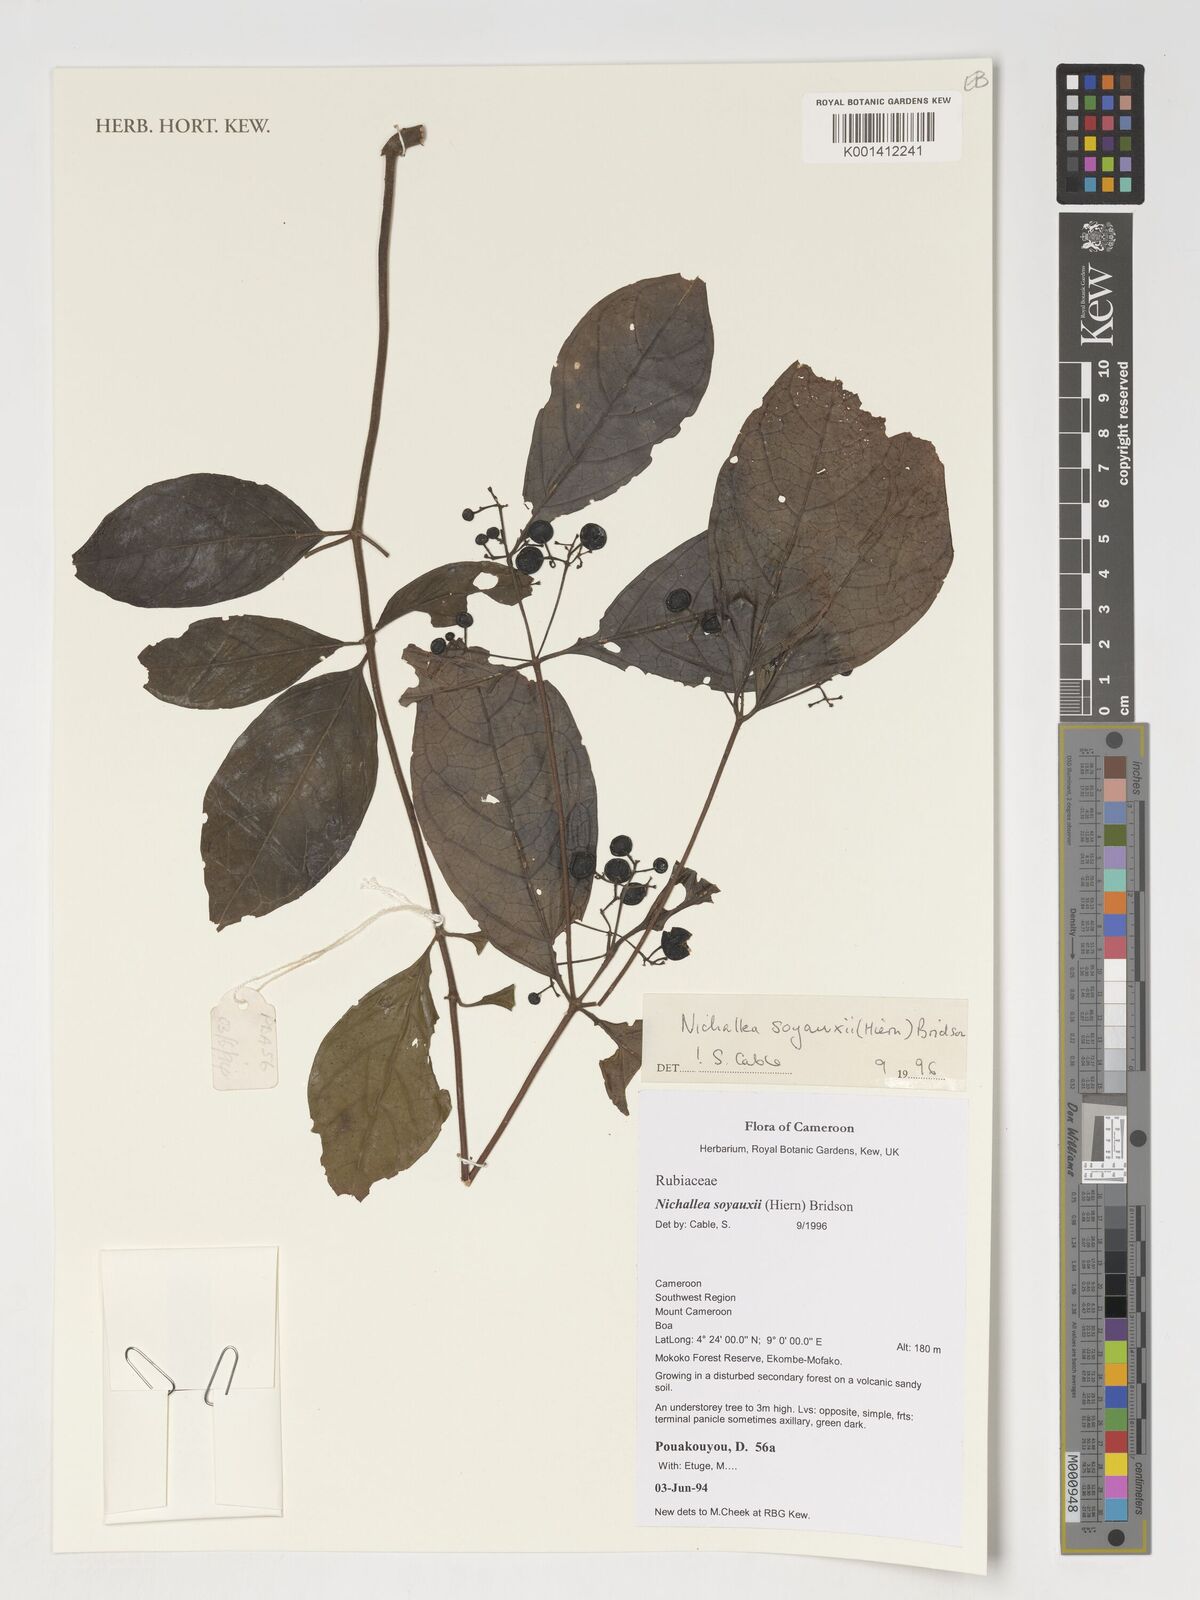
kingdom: Plantae
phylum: Tracheophyta
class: Magnoliopsida
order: Gentianales
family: Rubiaceae
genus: Nichallea
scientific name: Nichallea soyauxii
